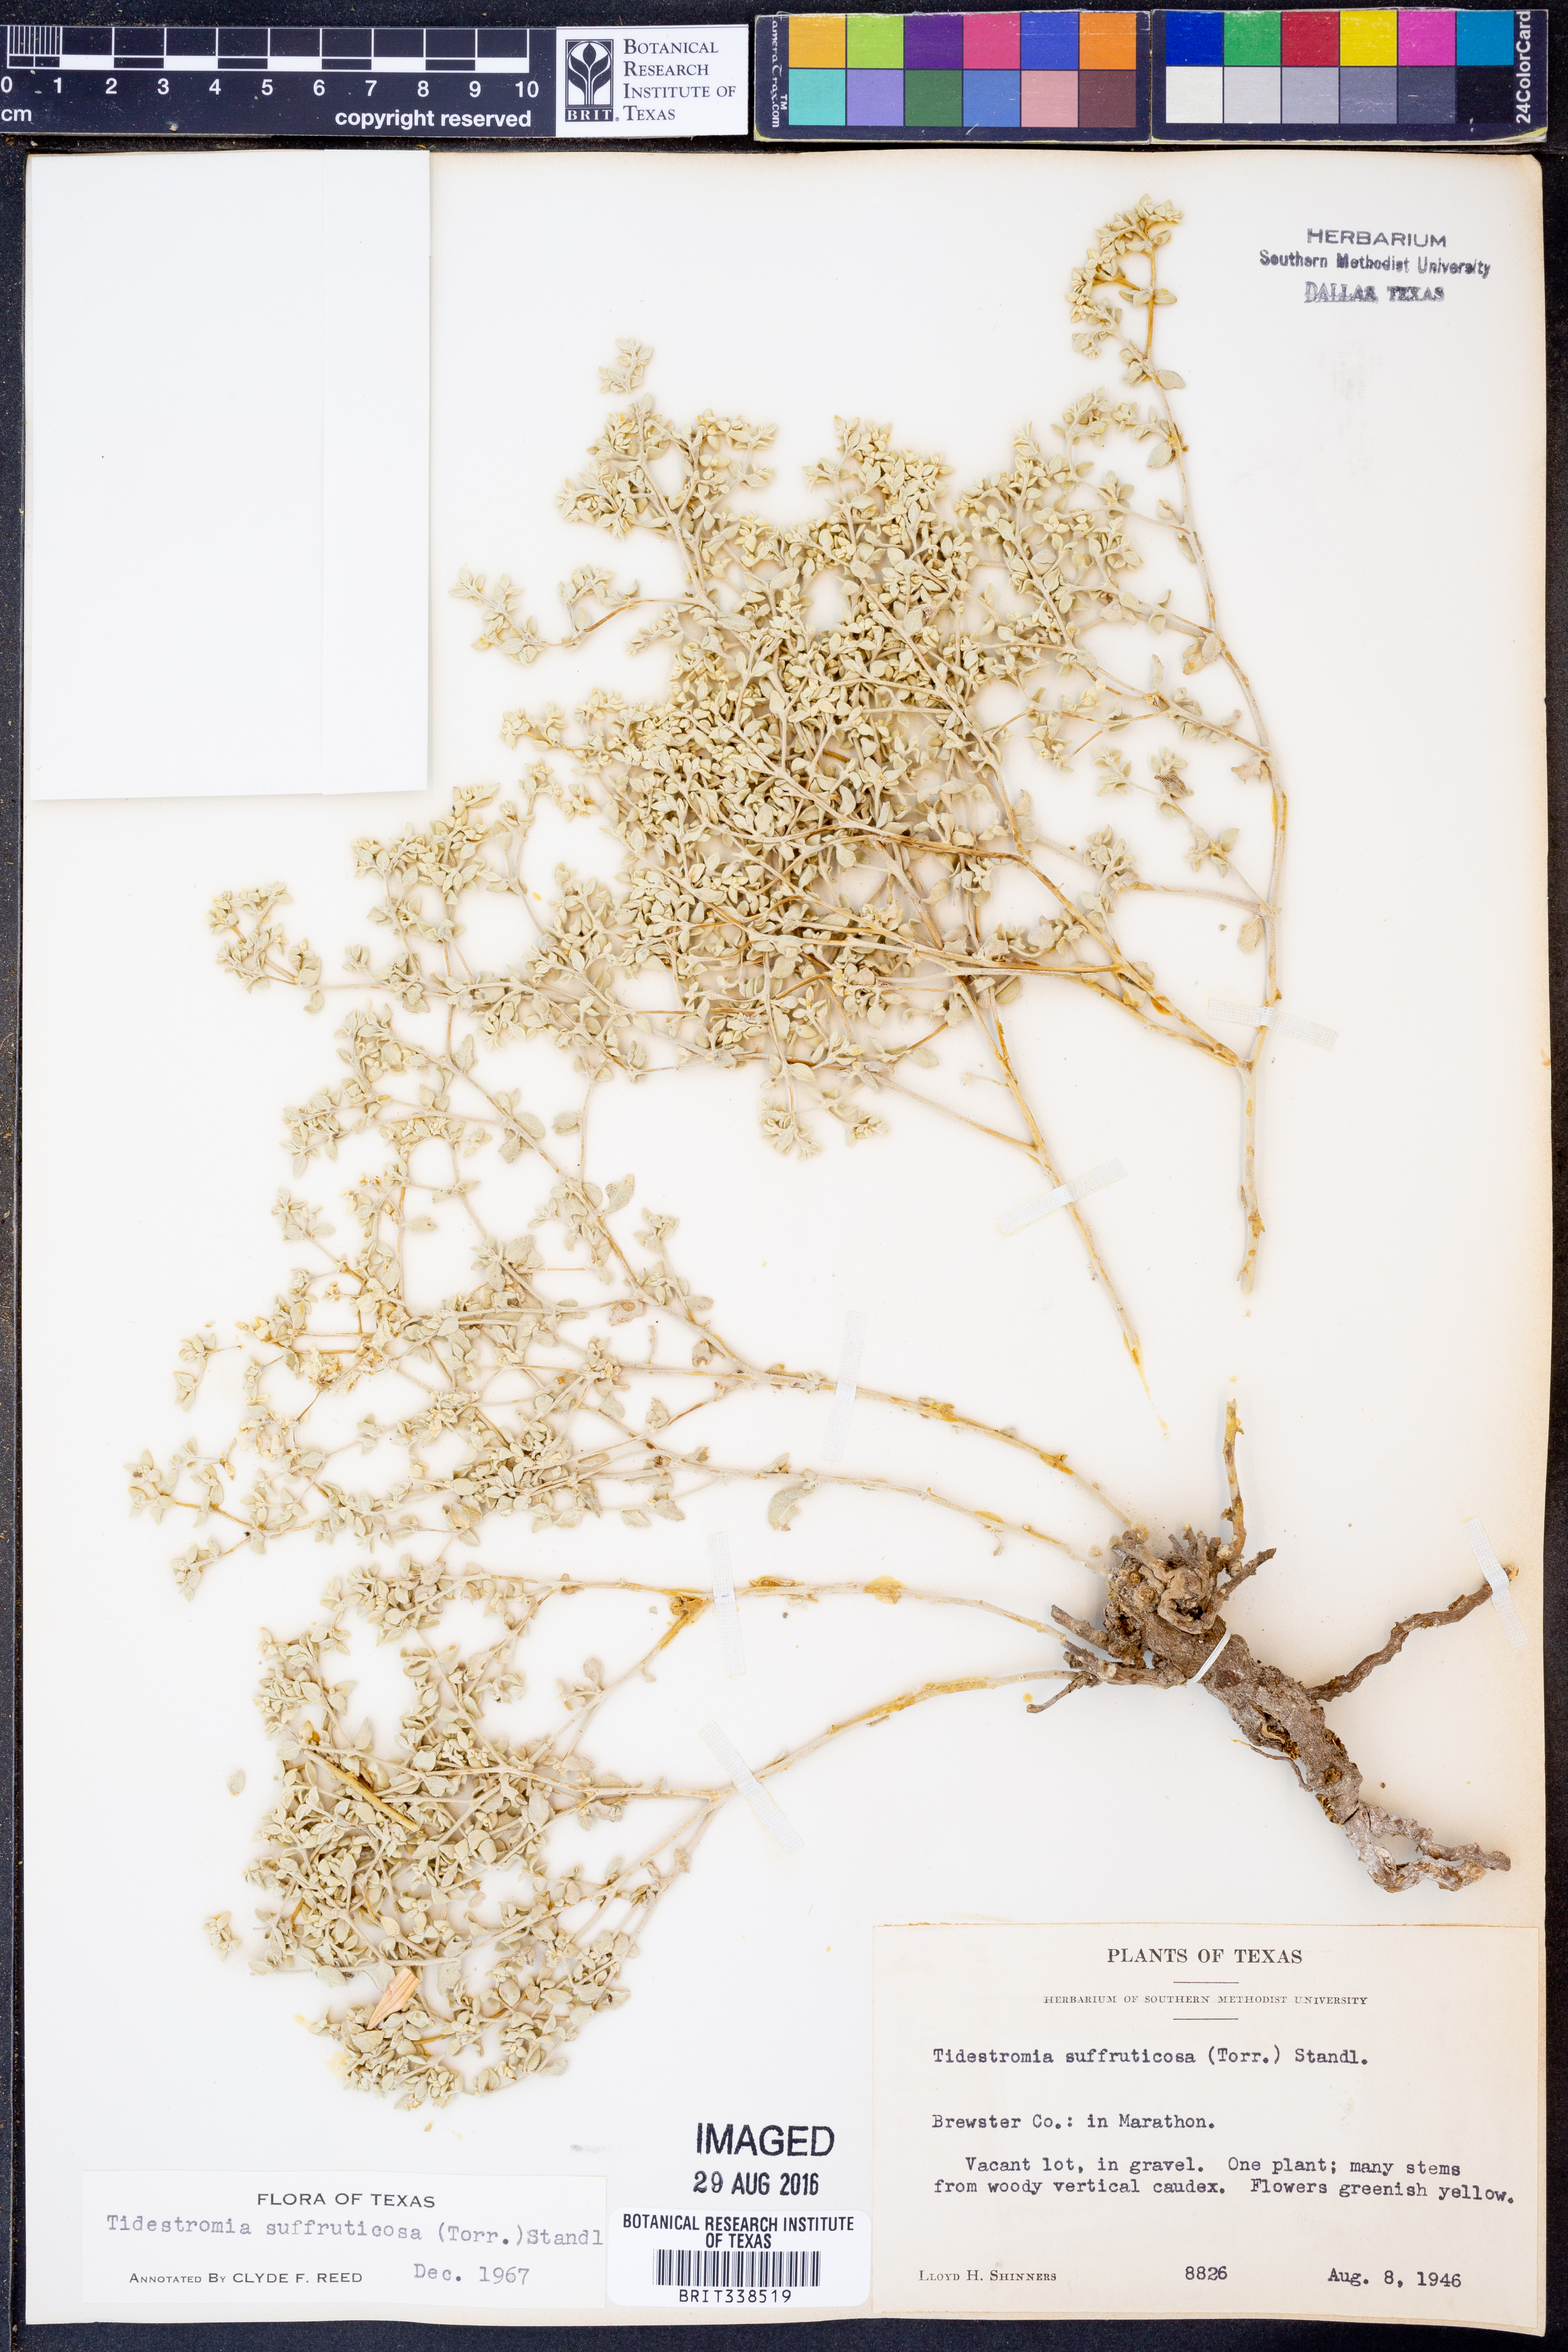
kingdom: Plantae
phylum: Tracheophyta
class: Magnoliopsida
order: Caryophyllales
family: Amaranthaceae
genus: Tidestromia
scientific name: Tidestromia suffruticosa
